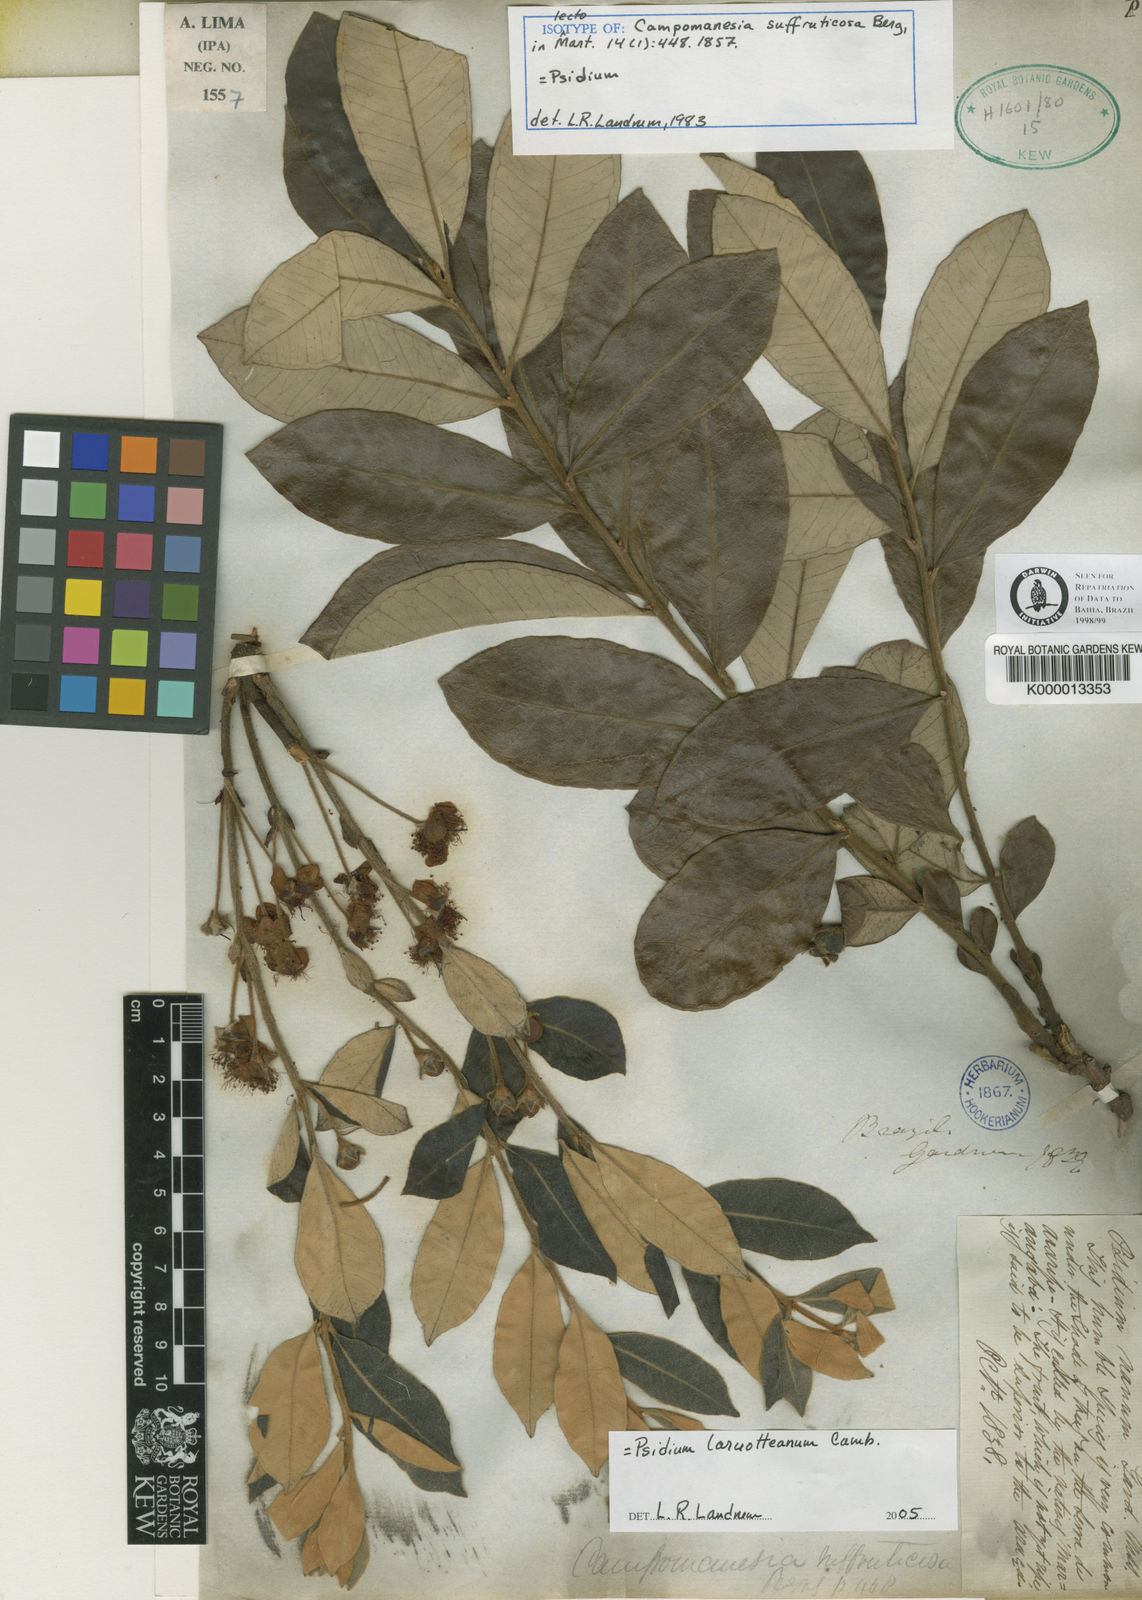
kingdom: Plantae
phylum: Tracheophyta
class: Magnoliopsida
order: Myrtales
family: Myrtaceae
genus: Psidium
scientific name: Psidium larueotteanum
